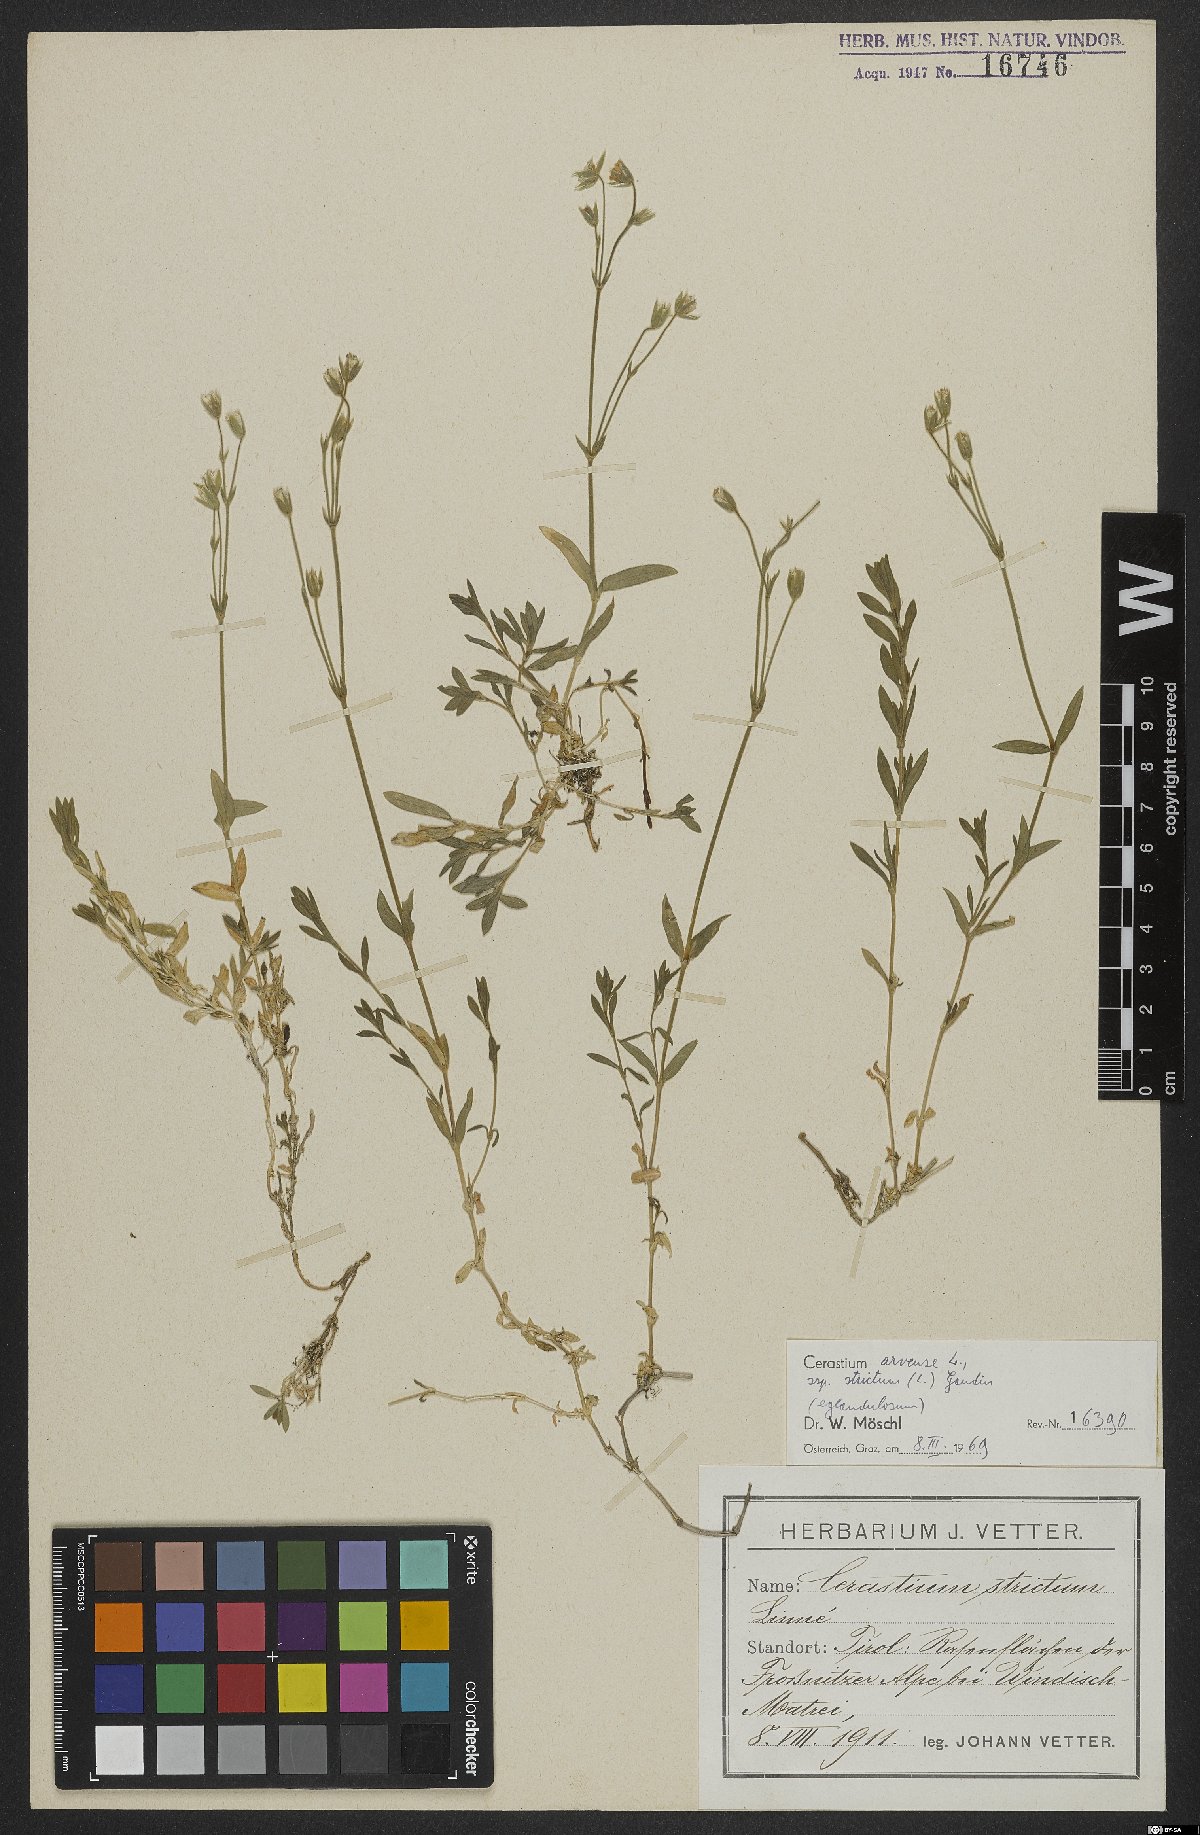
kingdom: Plantae
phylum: Tracheophyta
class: Magnoliopsida
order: Caryophyllales
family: Caryophyllaceae
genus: Cerastium
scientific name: Cerastium elongatum
